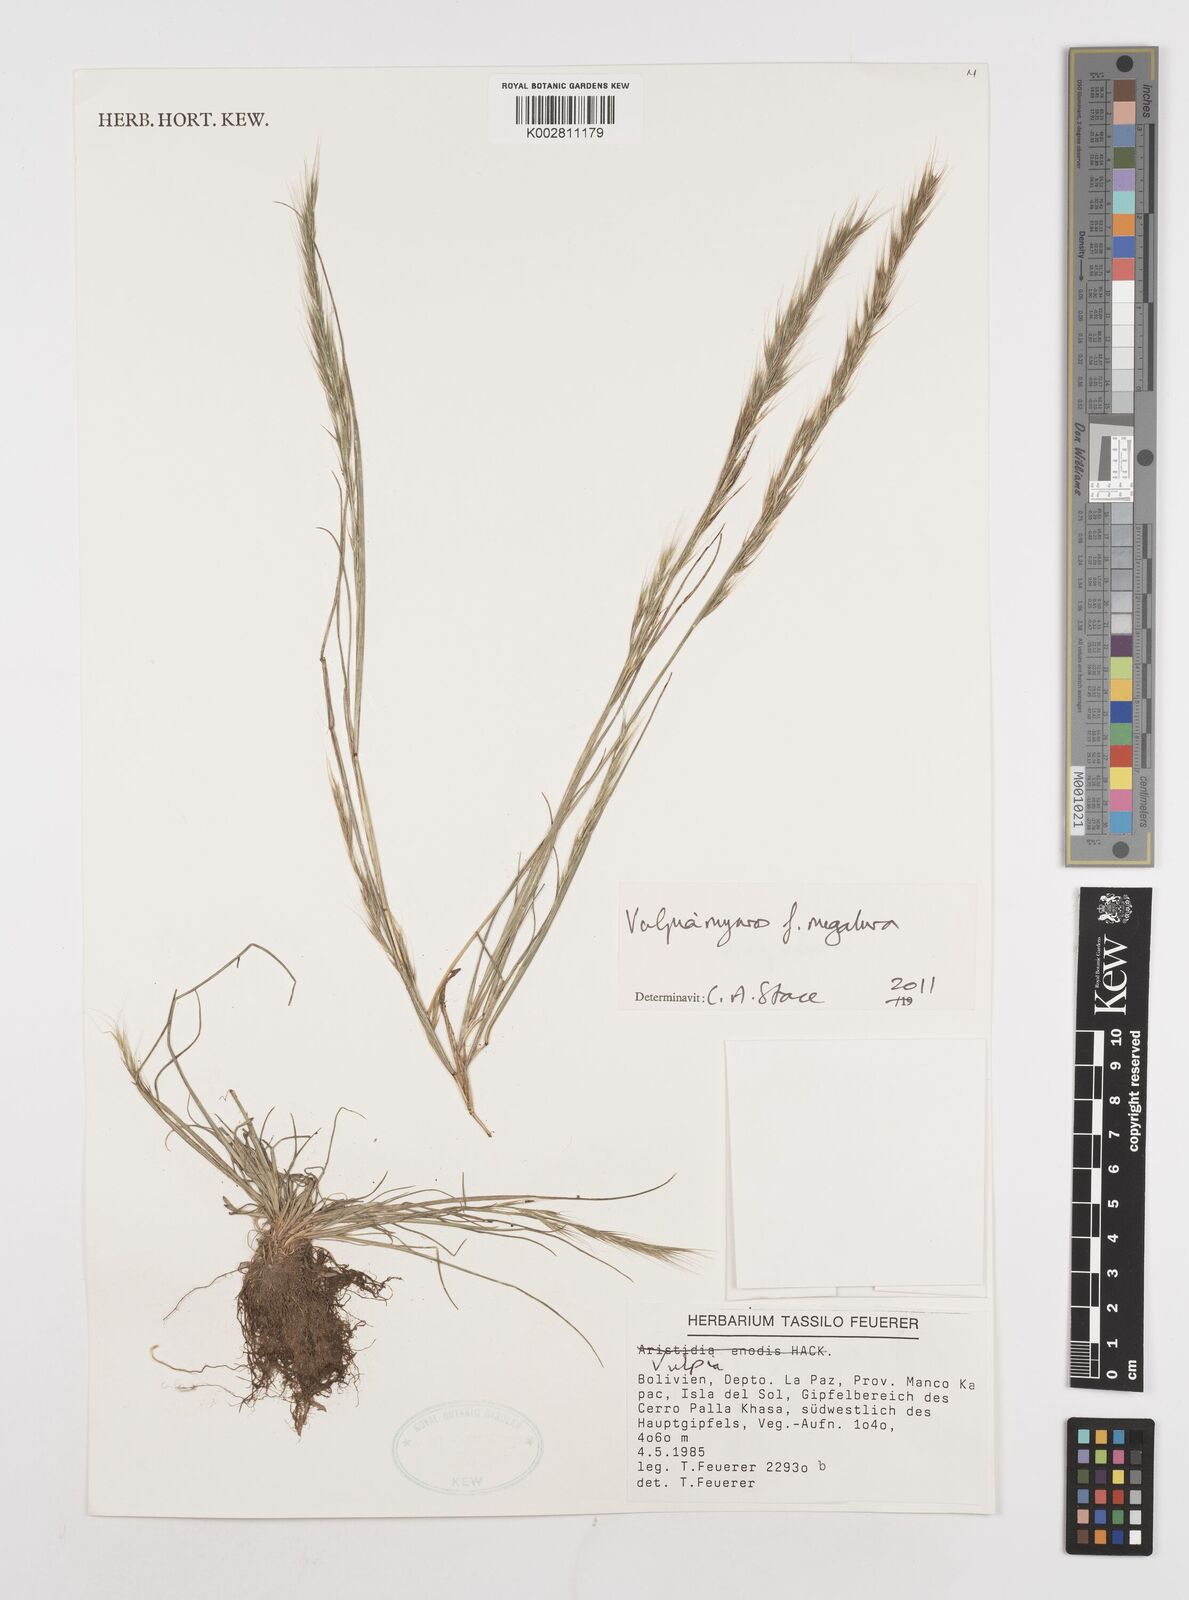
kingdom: Plantae
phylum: Tracheophyta
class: Liliopsida
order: Poales
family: Poaceae
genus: Festuca
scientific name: Festuca myuros
